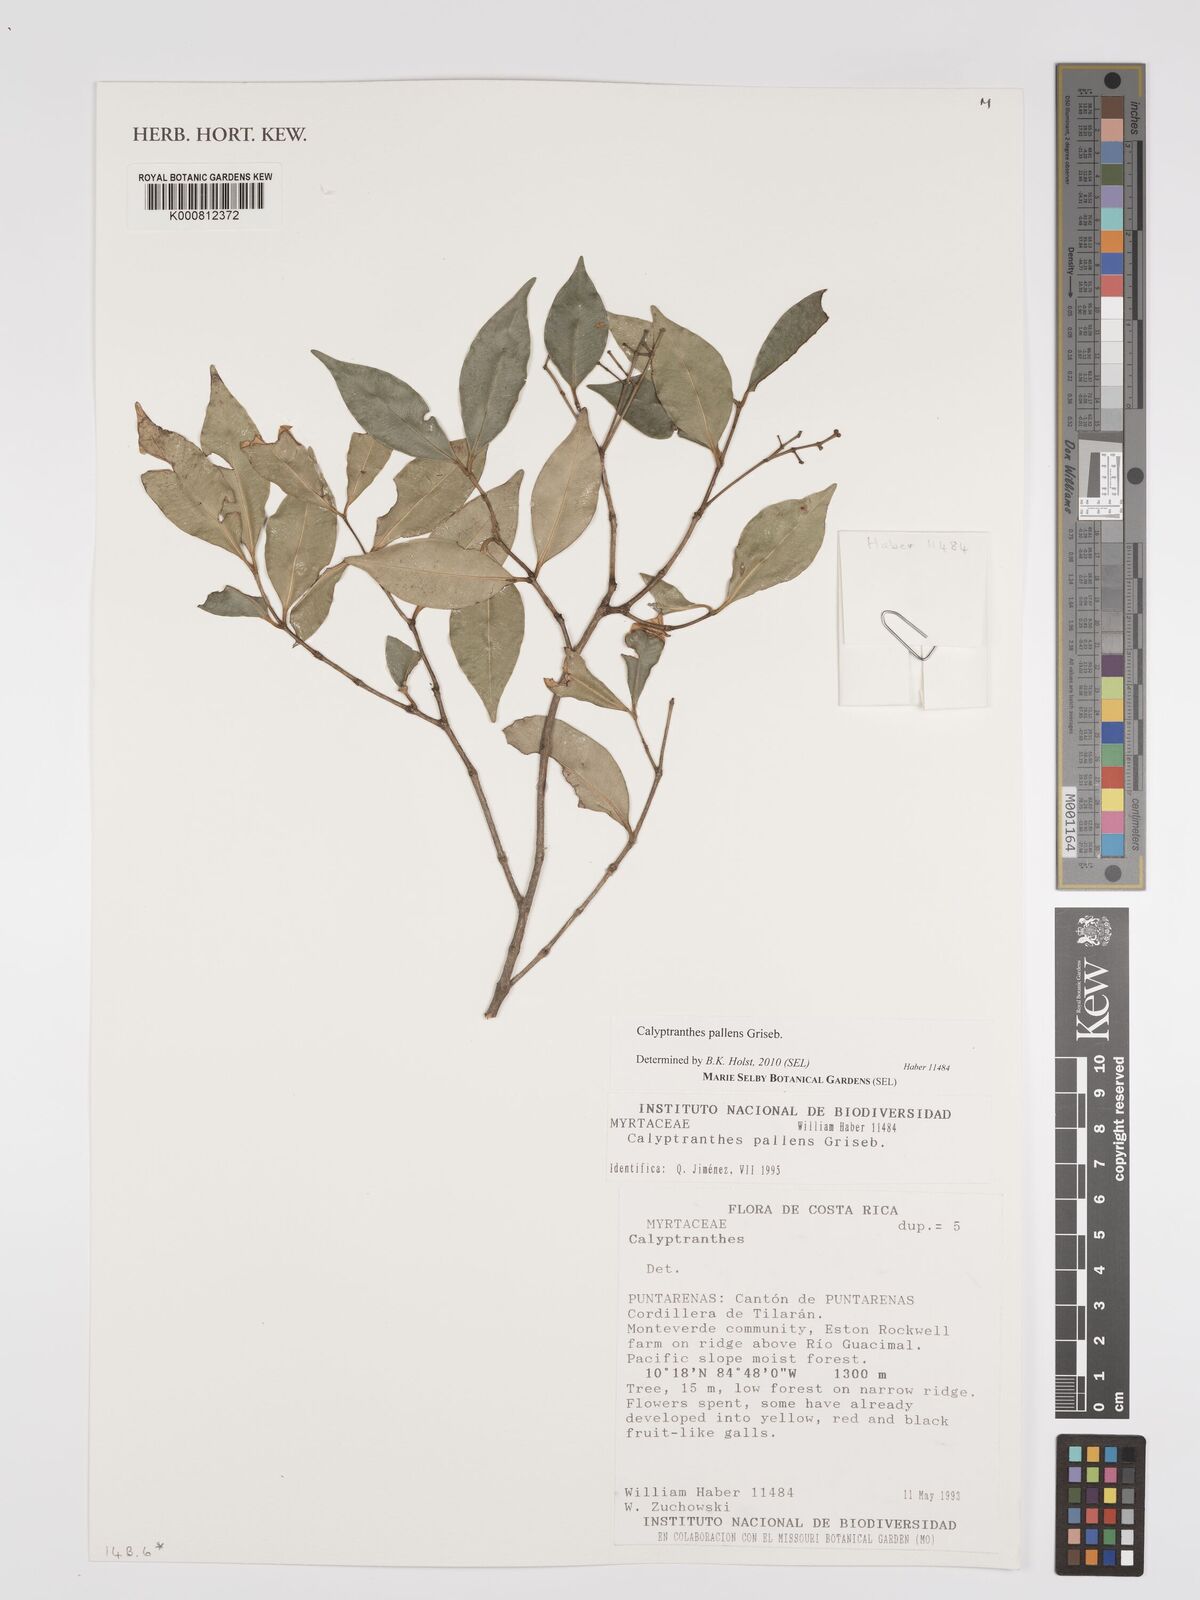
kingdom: Plantae
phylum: Tracheophyta
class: Magnoliopsida
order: Myrtales
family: Myrtaceae
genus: Myrcia
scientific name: Myrcia neopallens
